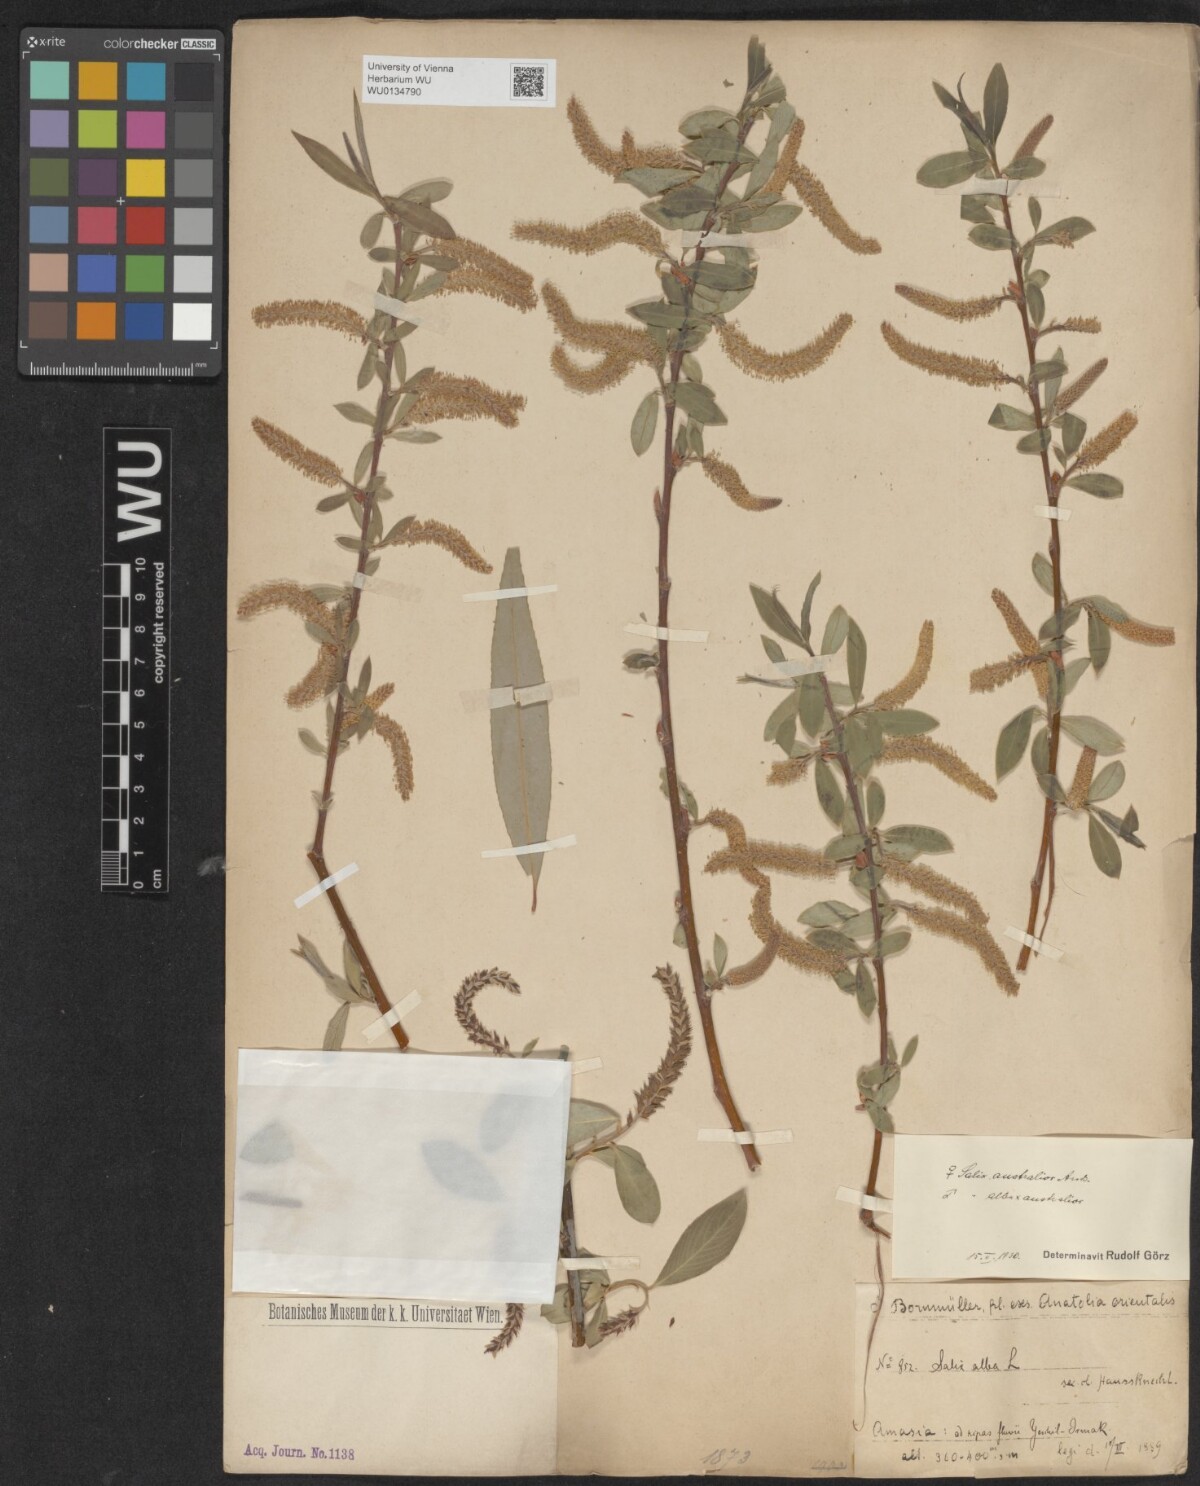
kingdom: Plantae
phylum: Tracheophyta
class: Magnoliopsida
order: Malpighiales
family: Salicaceae
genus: Salix
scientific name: Salix excelsa
